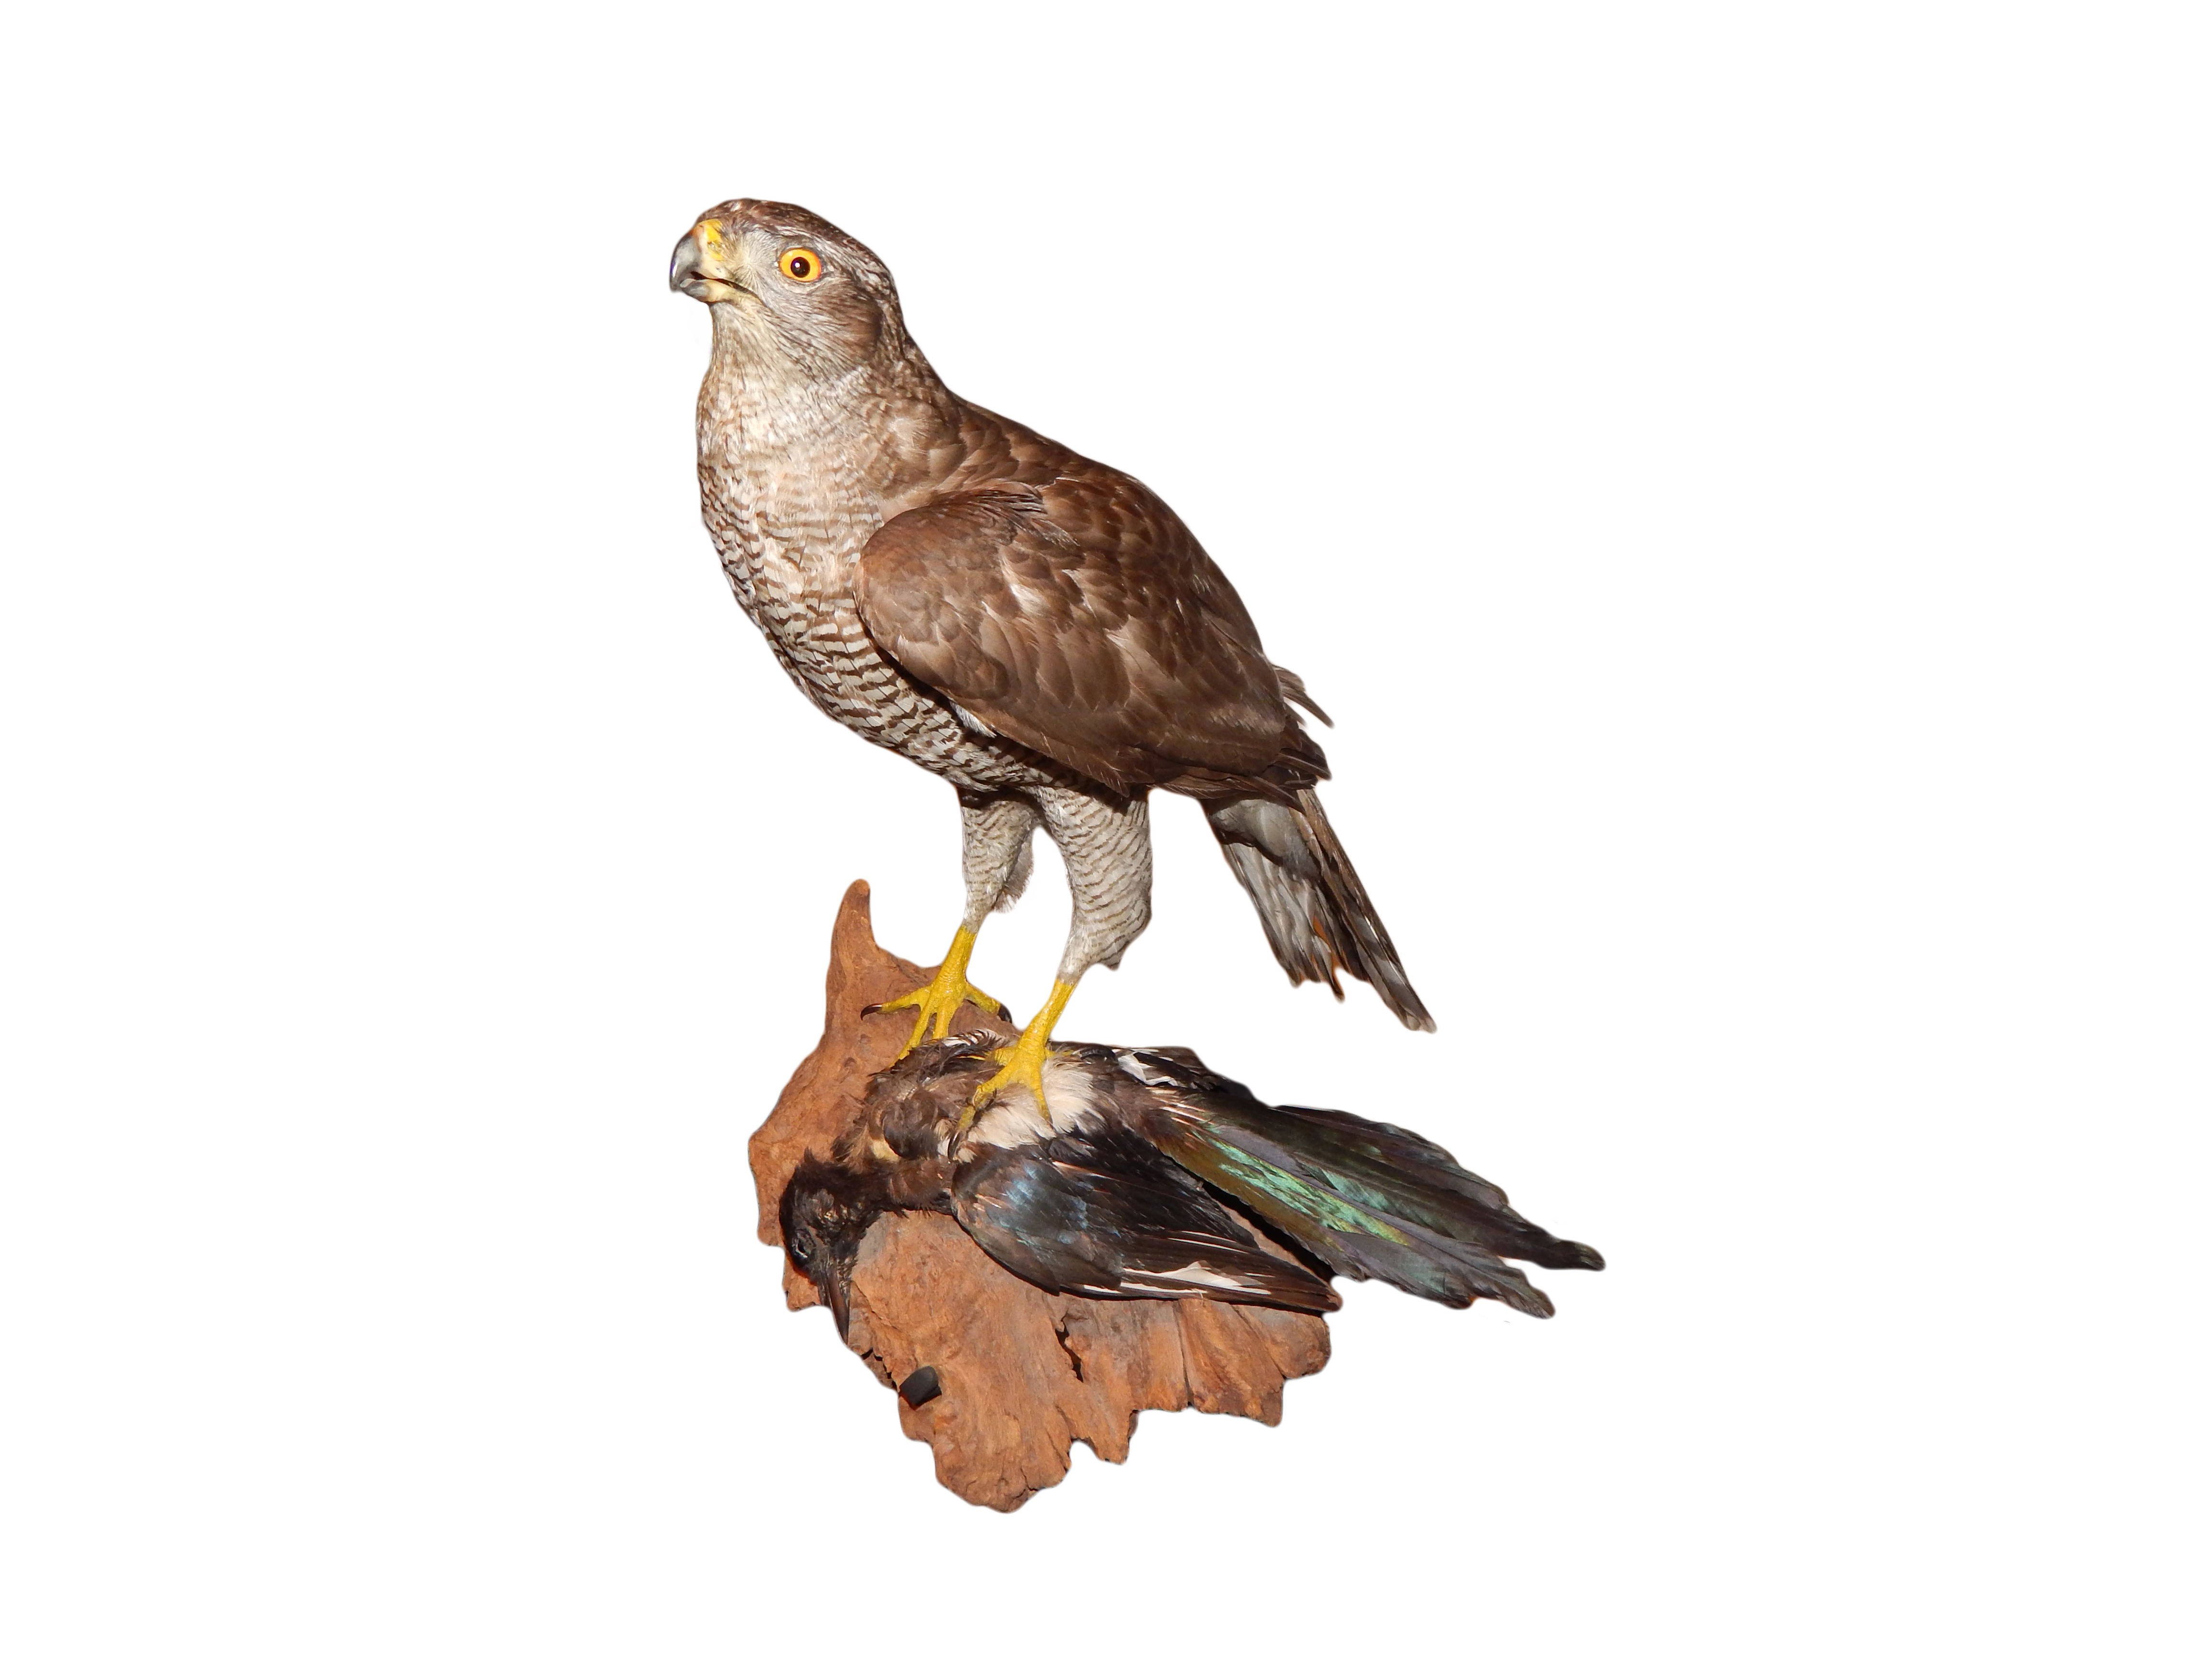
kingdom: Animalia
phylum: Chordata
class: Aves
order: Accipitriformes
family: Accipitridae
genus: Accipiter
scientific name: Accipiter gentilis
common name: Northern goshawk
